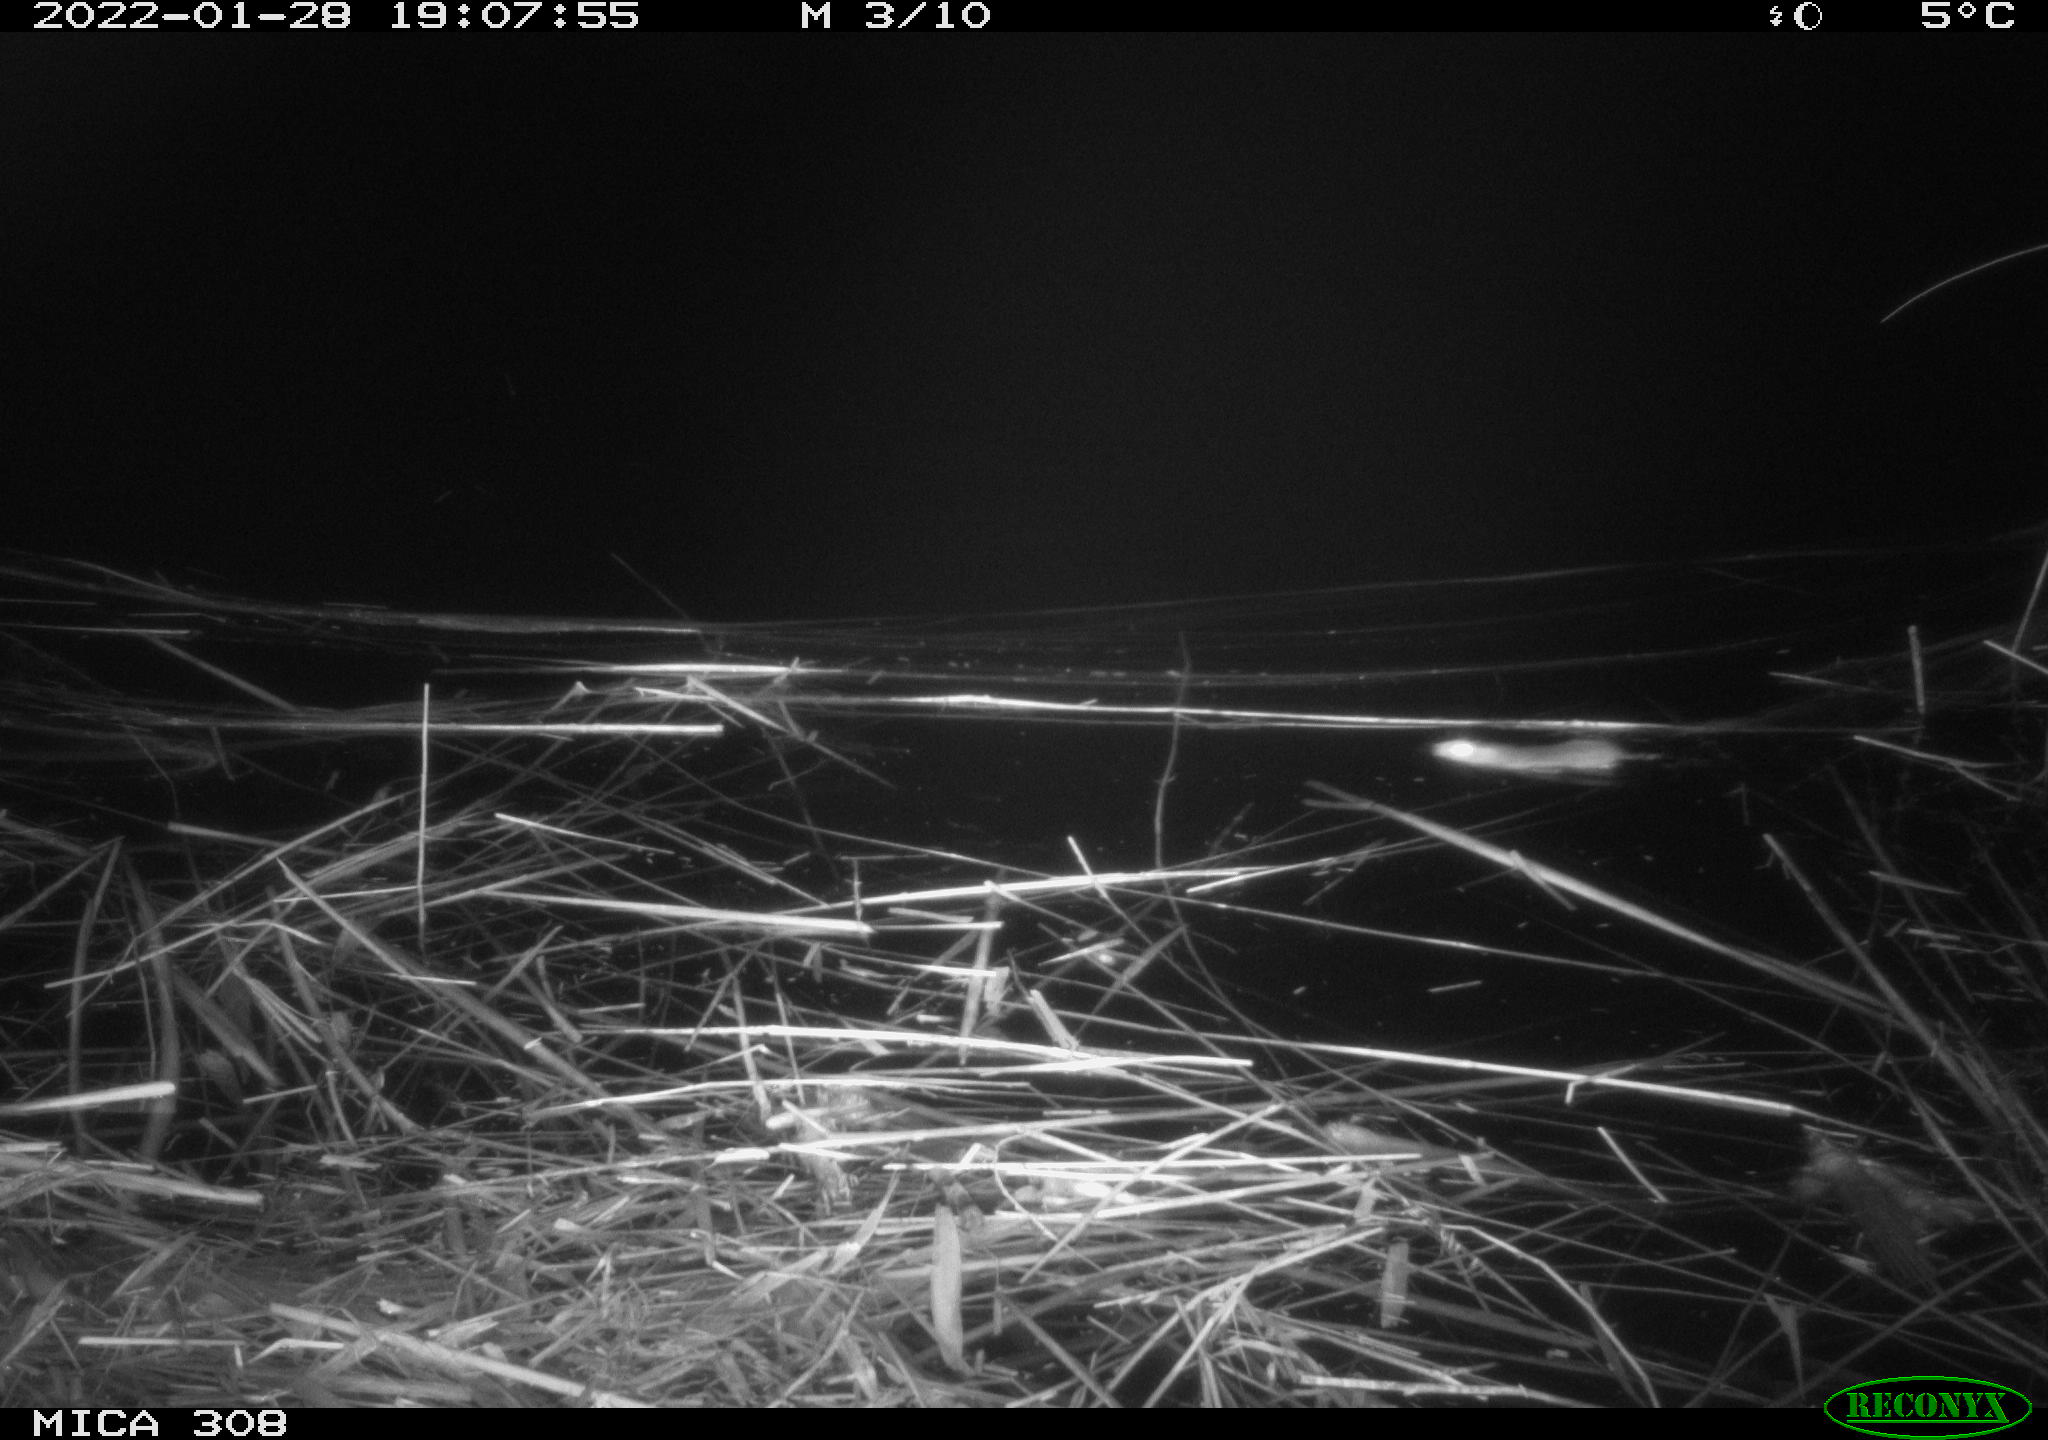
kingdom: Animalia
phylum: Chordata
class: Mammalia
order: Rodentia
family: Cricetidae
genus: Ondatra
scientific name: Ondatra zibethicus
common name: Muskrat
